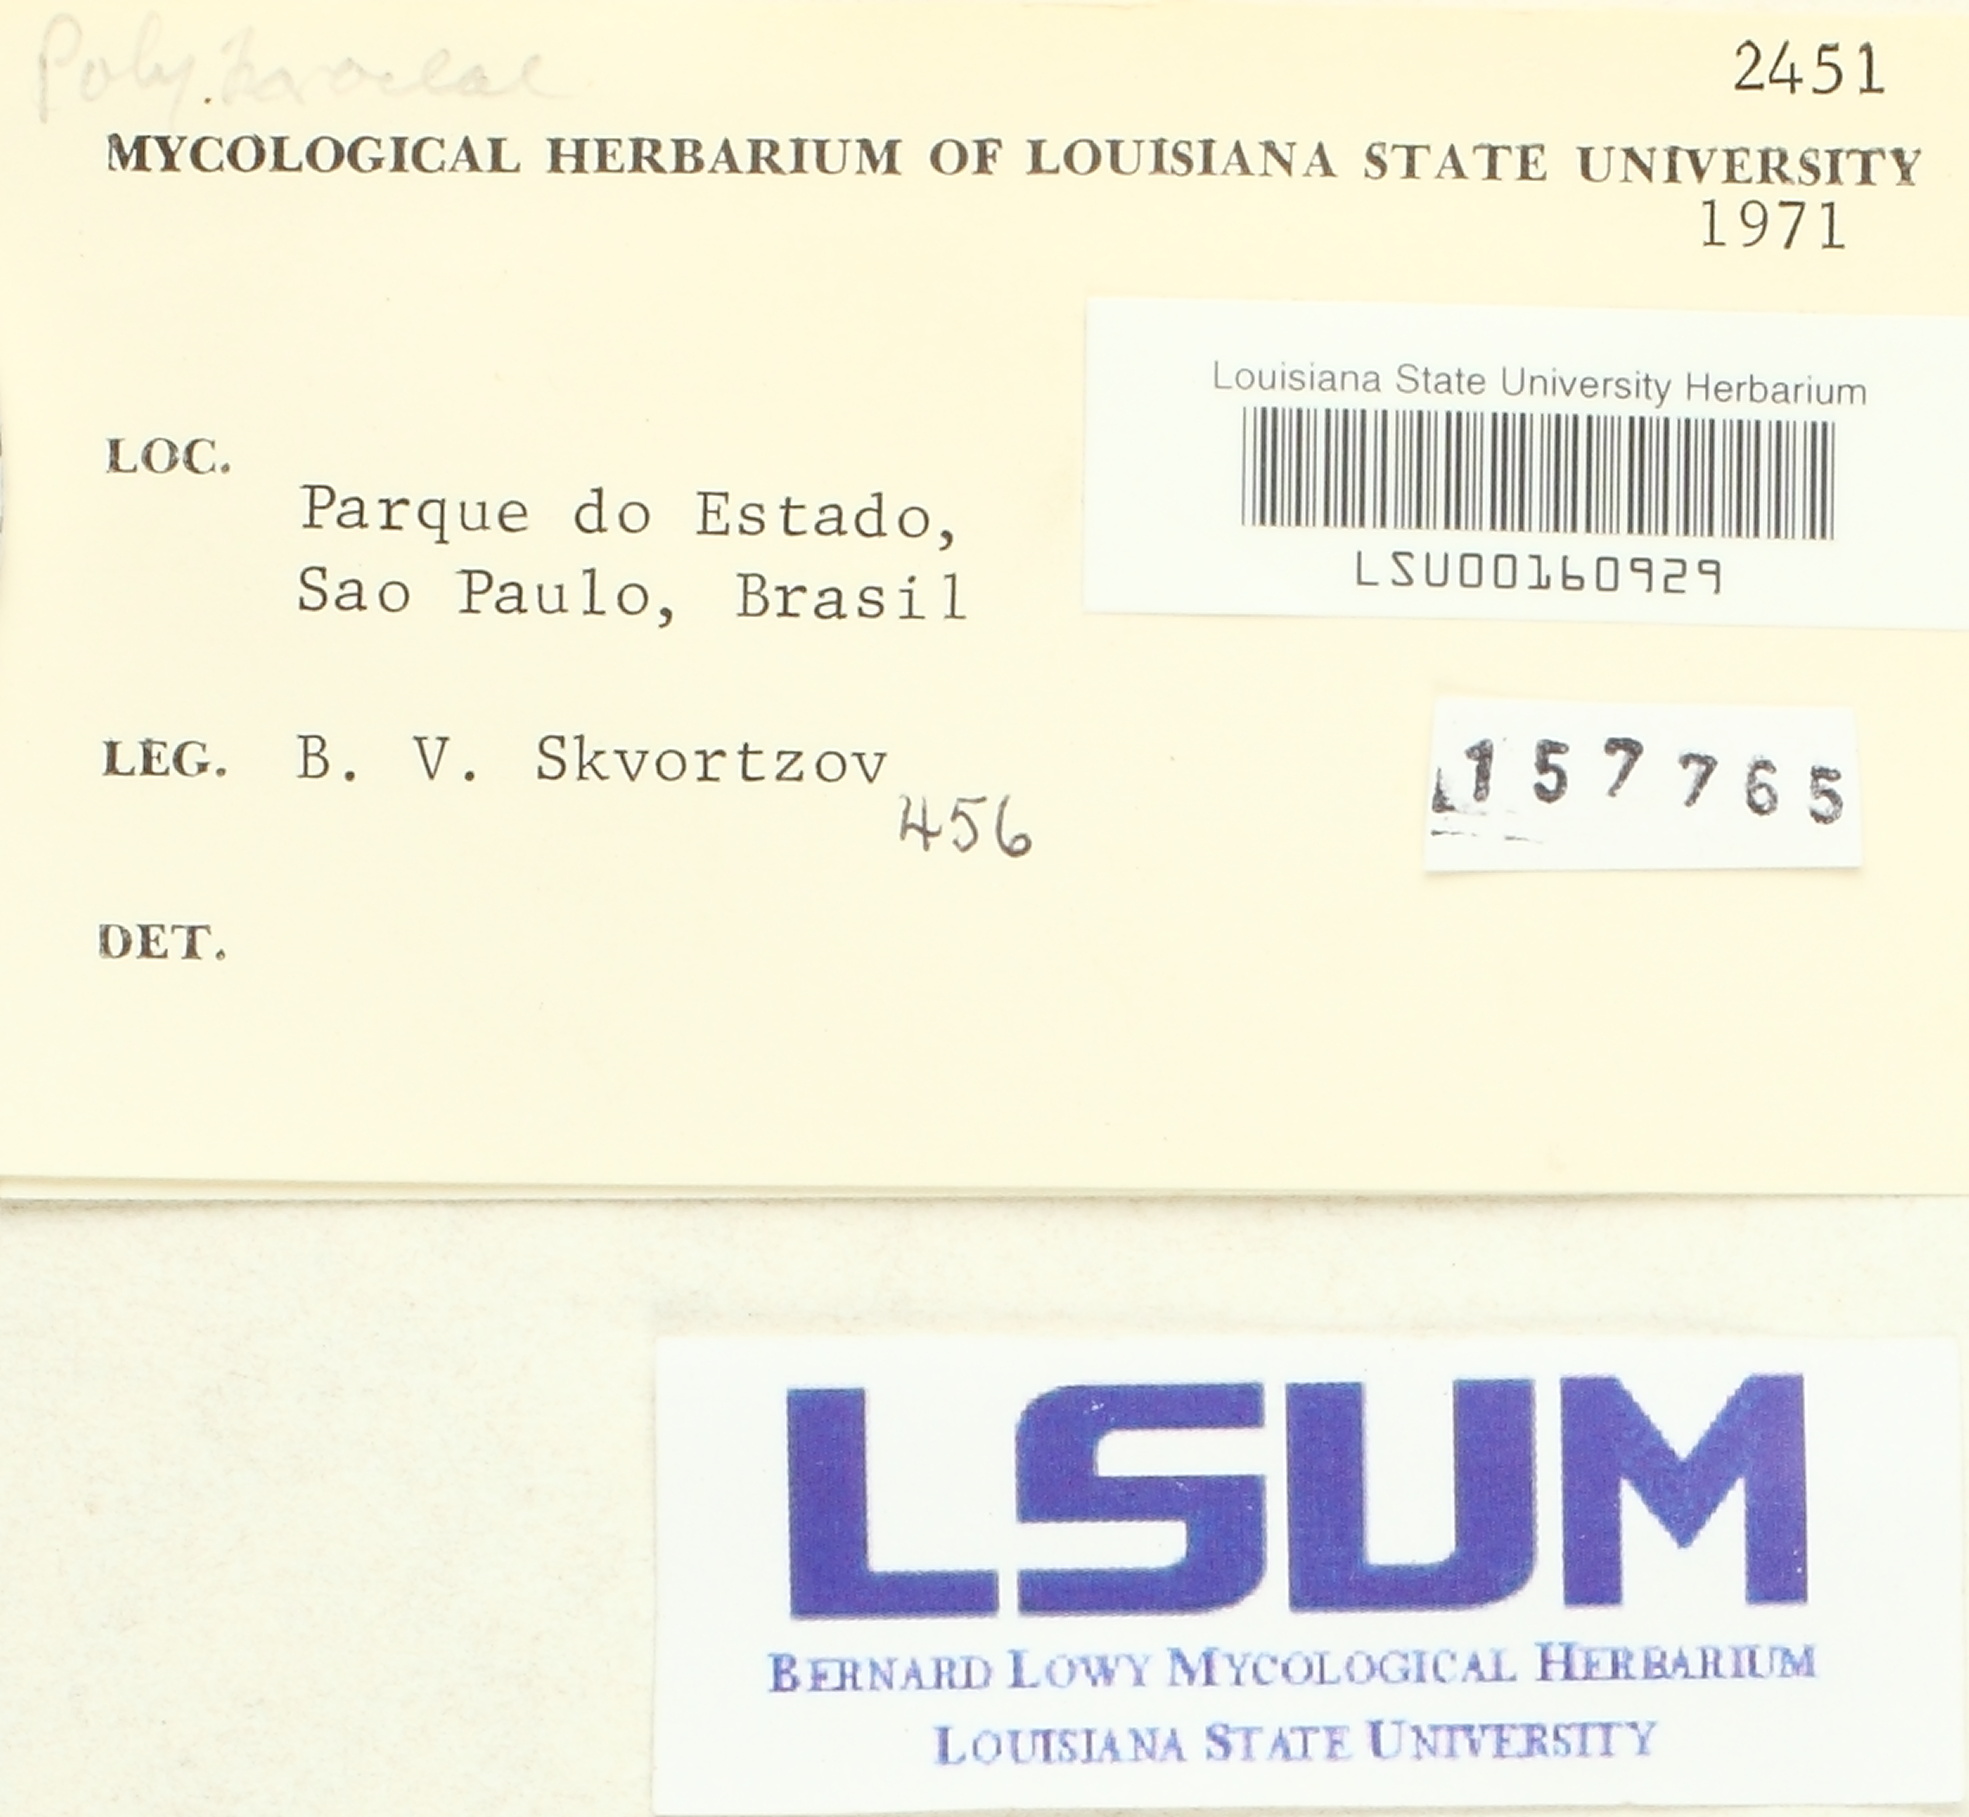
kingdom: Fungi
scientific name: Fungi
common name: Fungi
